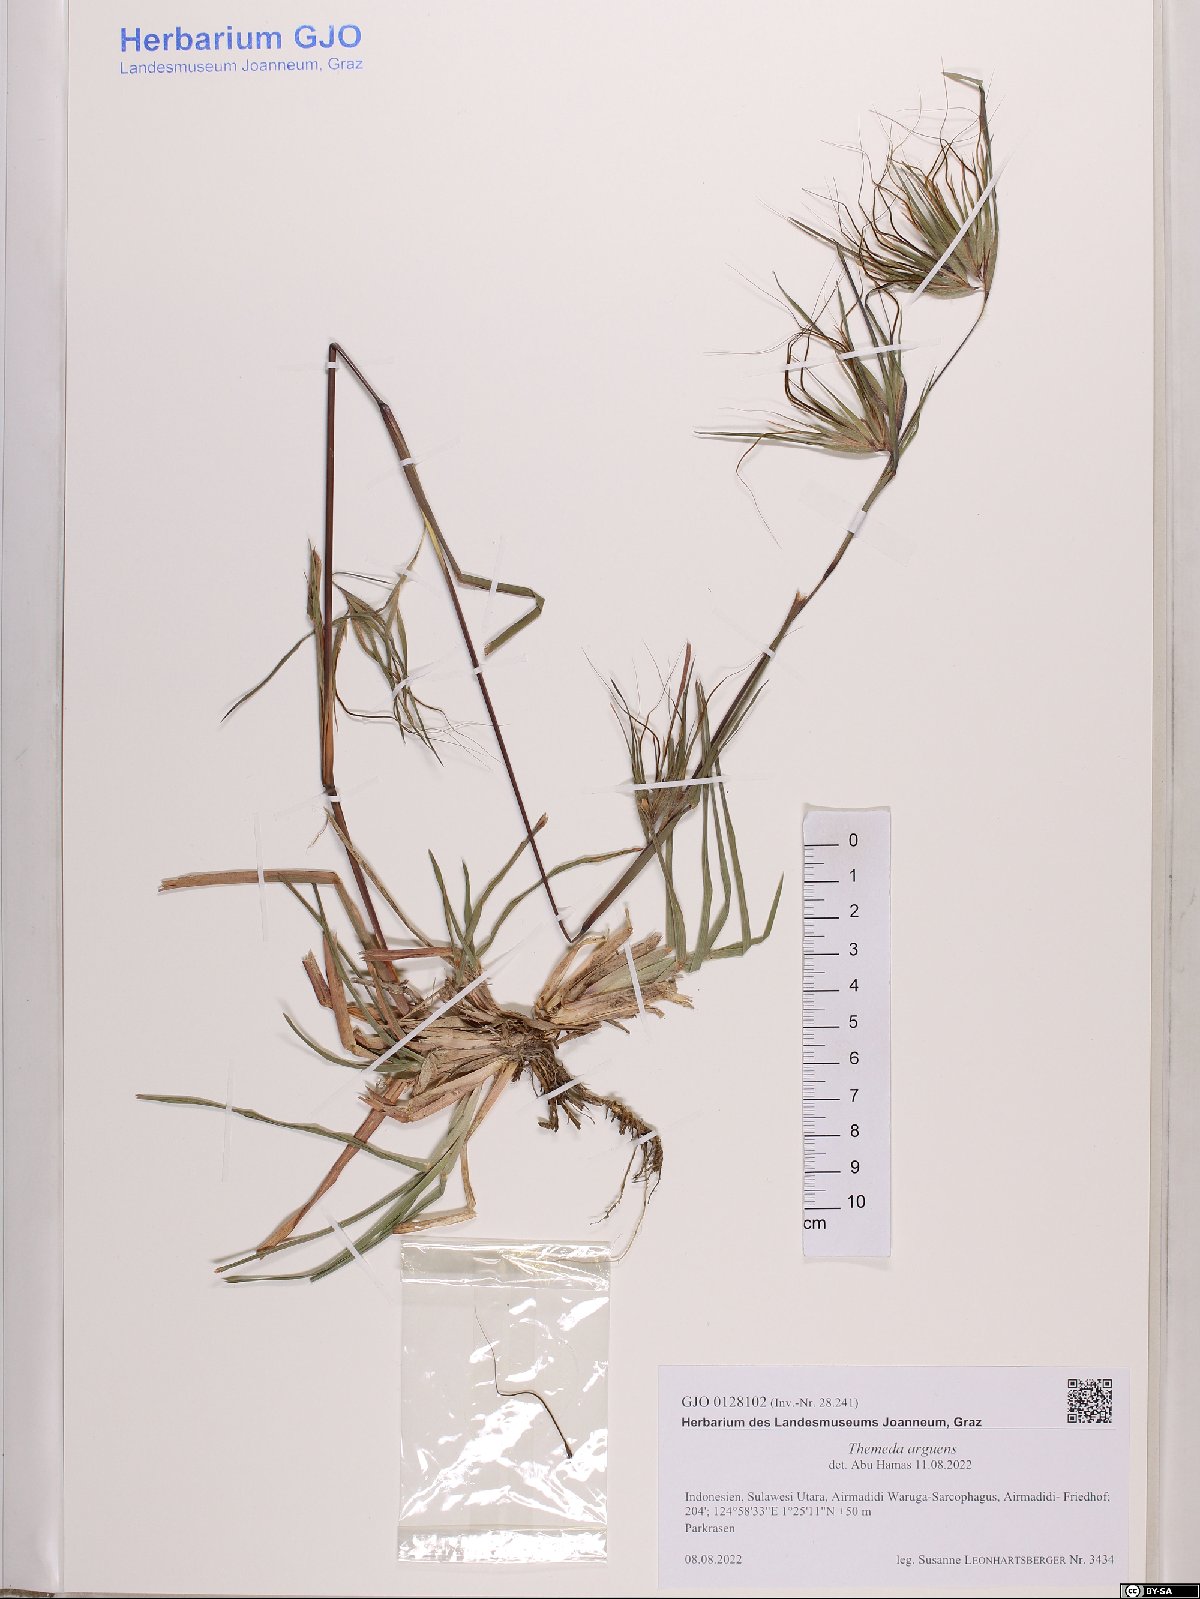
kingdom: Plantae
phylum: Tracheophyta
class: Liliopsida
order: Poales
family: Poaceae
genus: Themeda
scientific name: Themeda arguens
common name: Christmas grass
